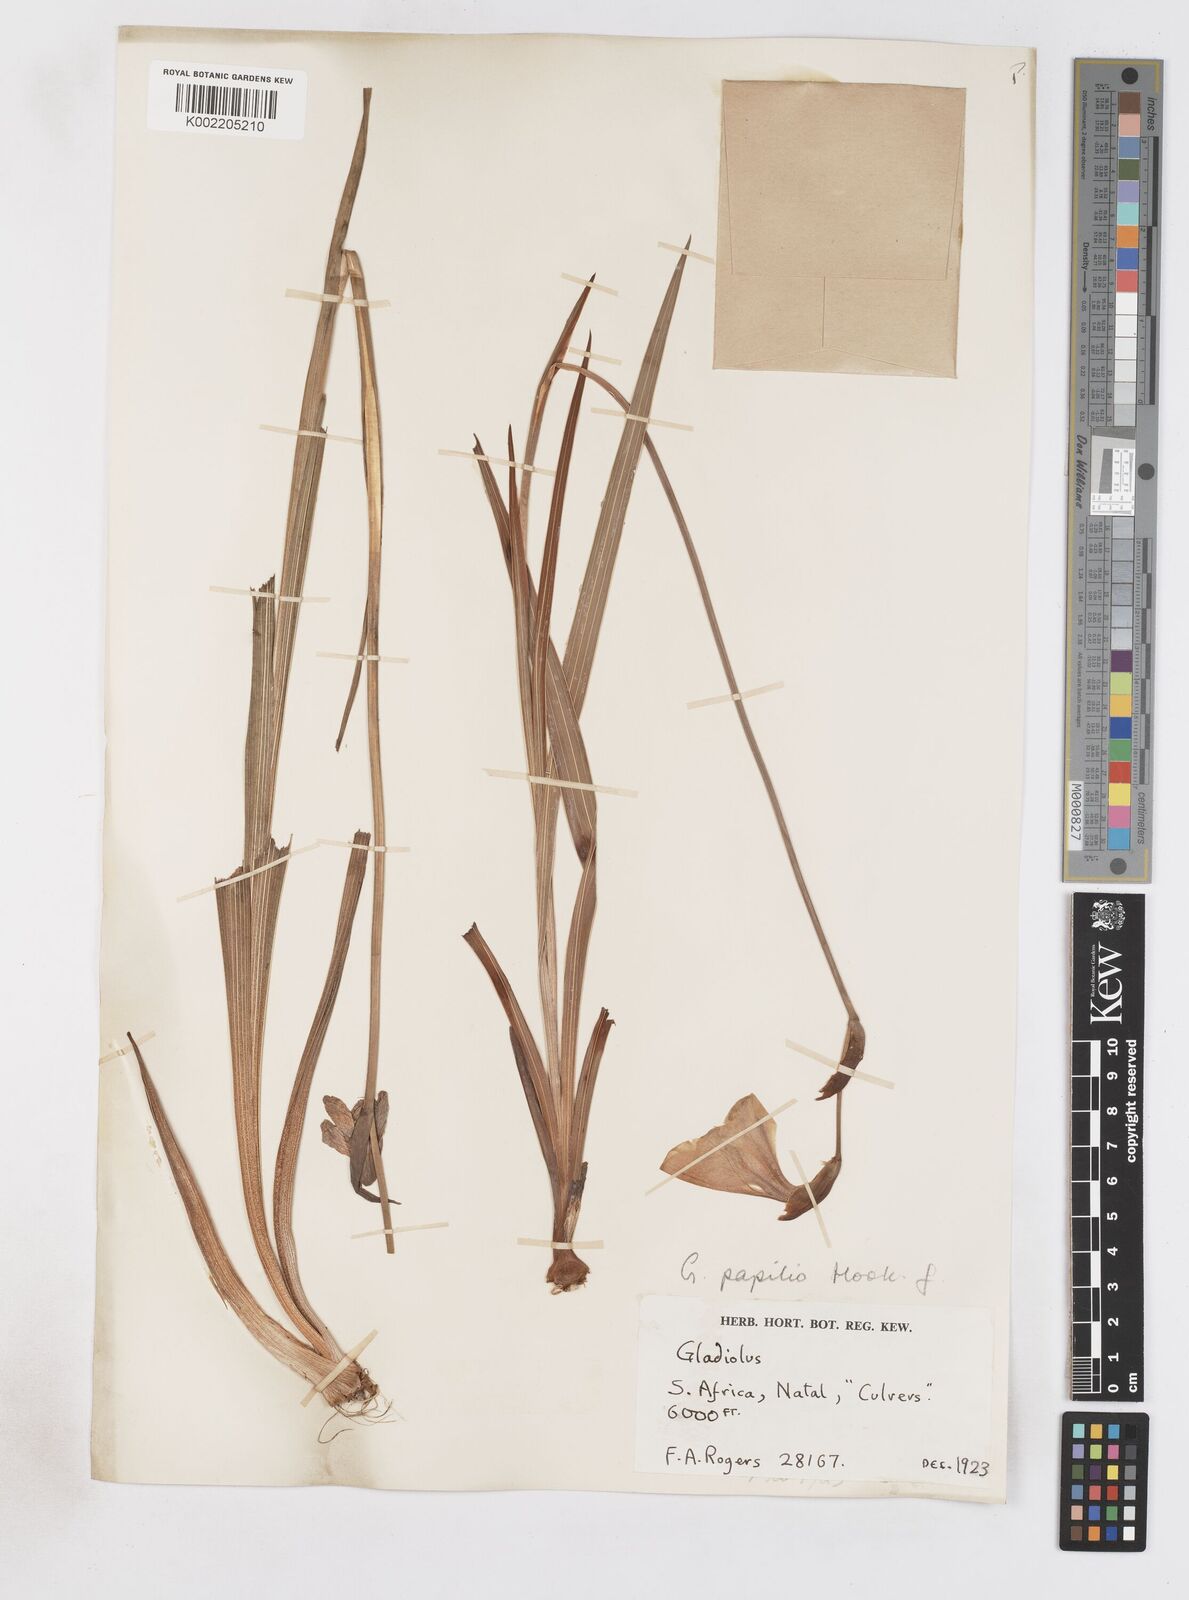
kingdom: Plantae
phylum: Tracheophyta
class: Liliopsida
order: Asparagales
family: Iridaceae
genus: Gladiolus
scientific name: Gladiolus papilio
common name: Goldblotch gladiolus
